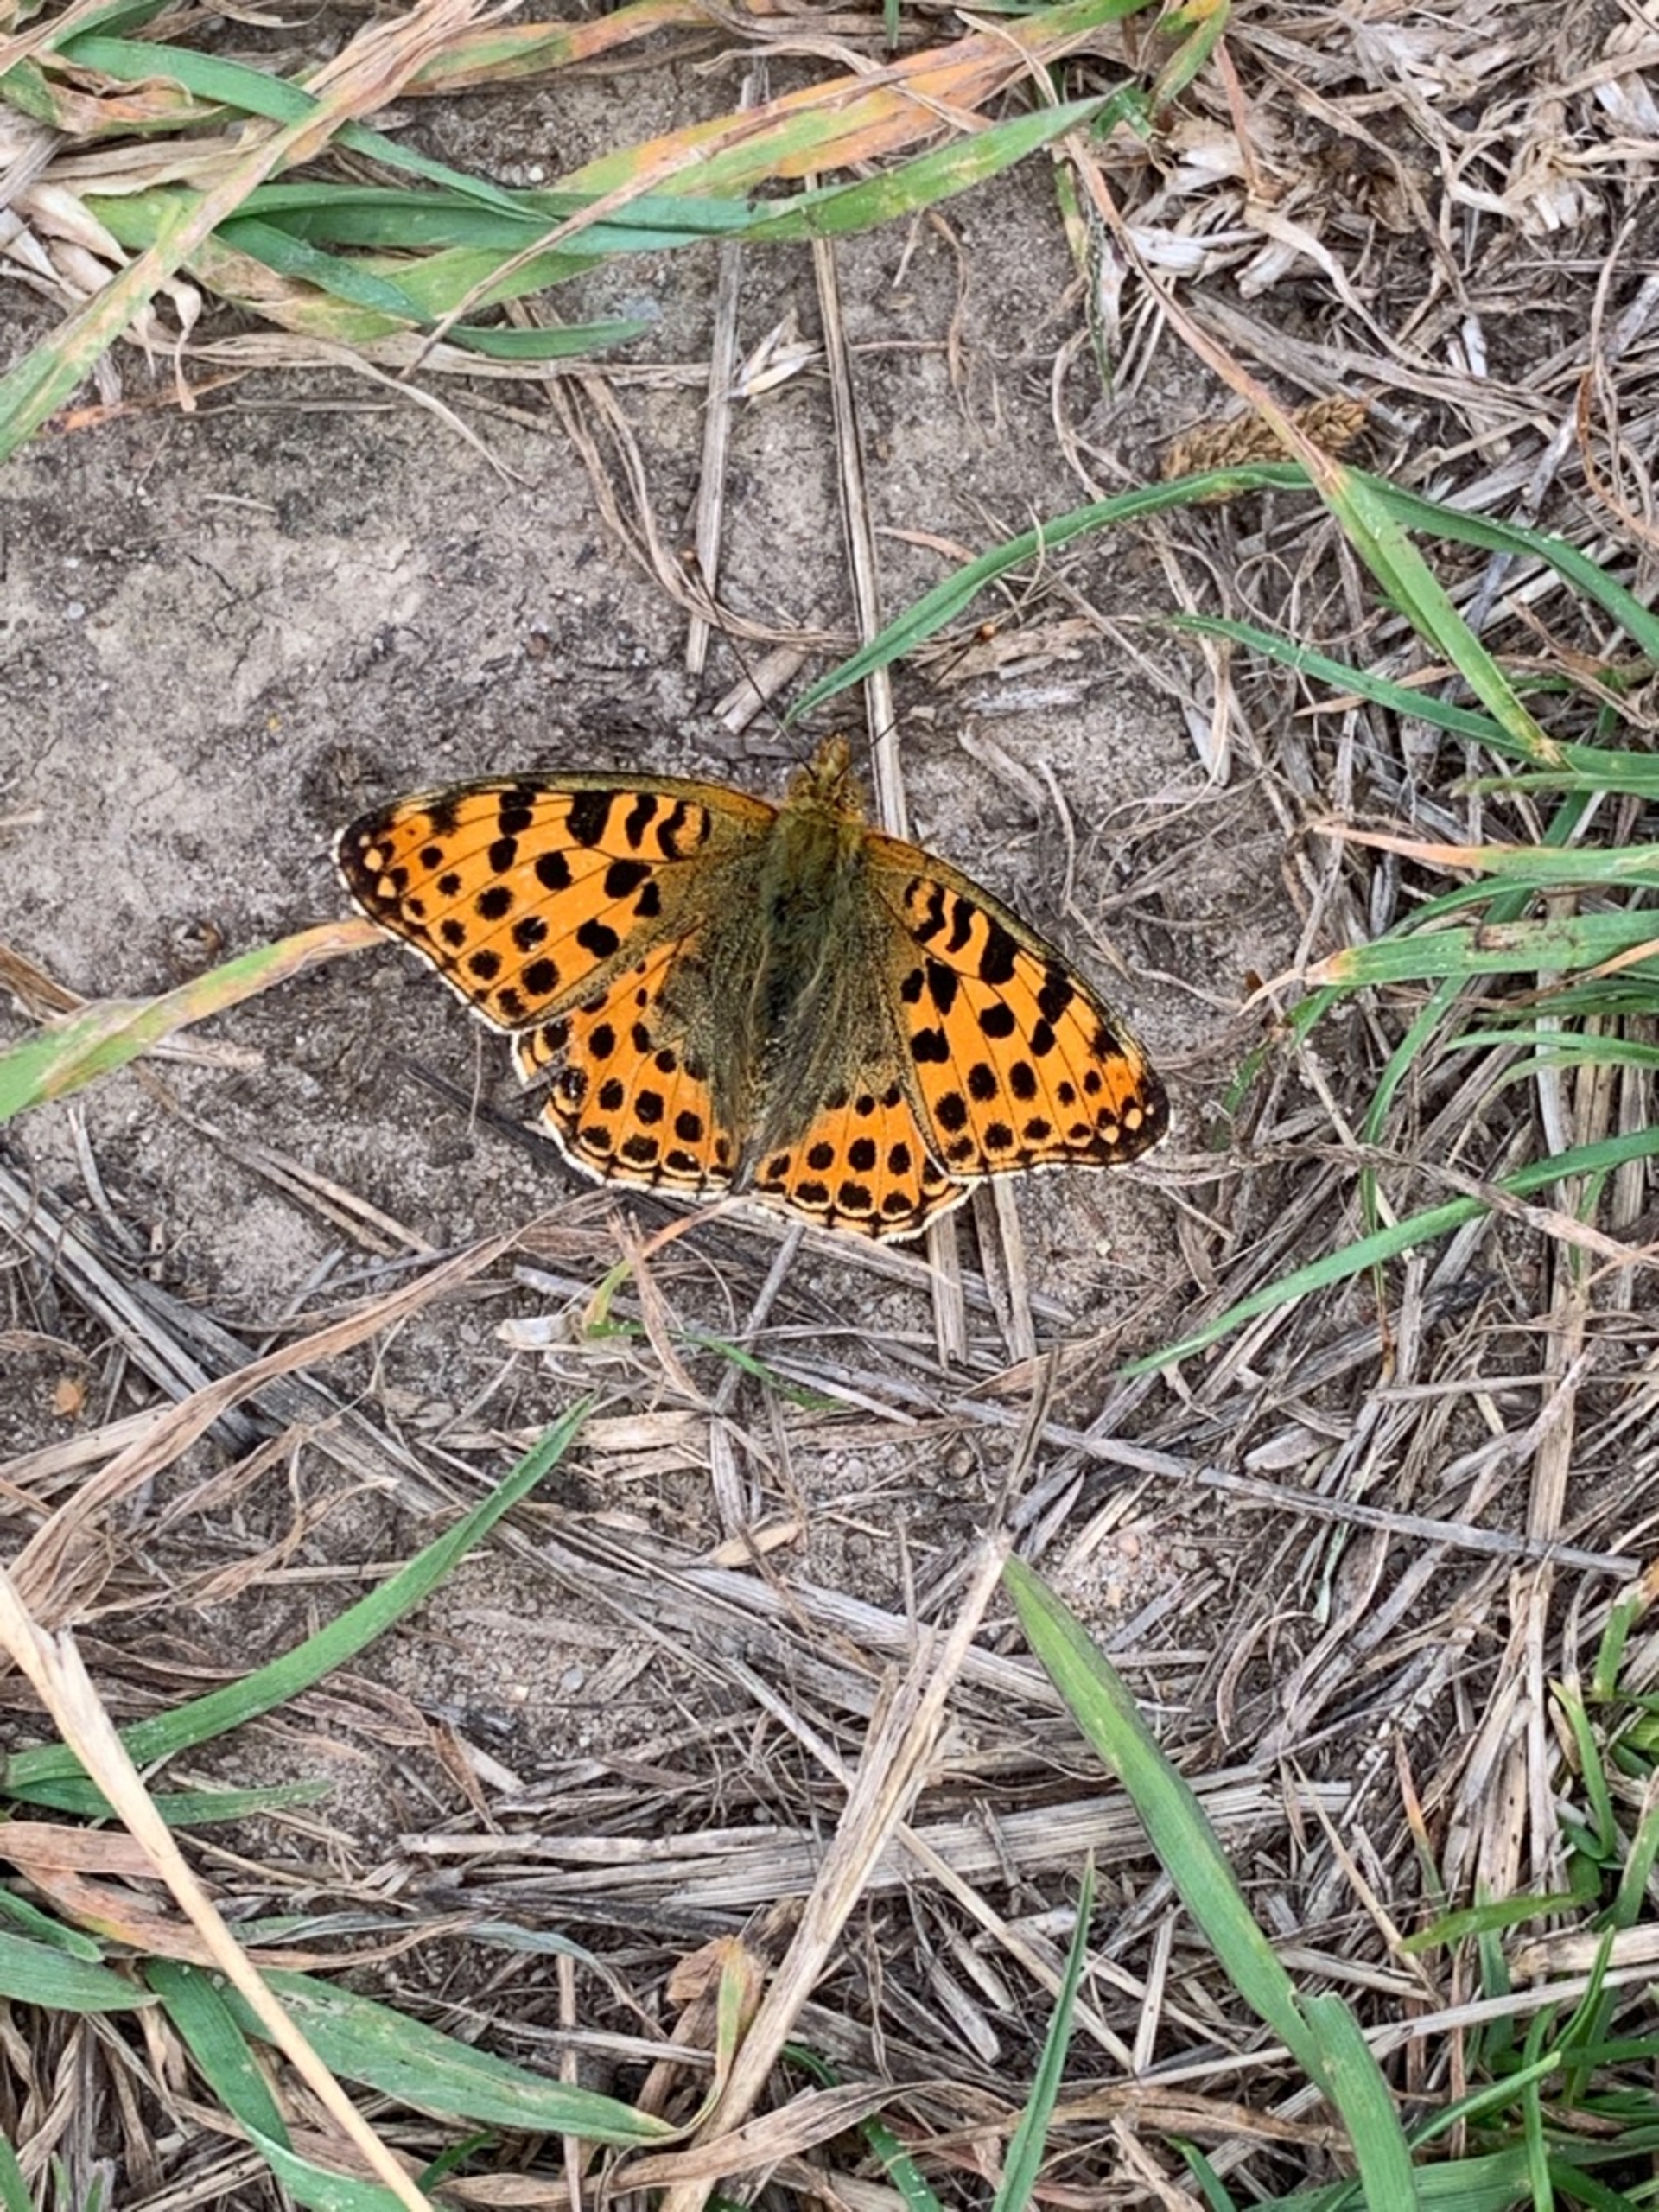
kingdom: Animalia
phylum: Arthropoda
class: Insecta
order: Lepidoptera
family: Nymphalidae
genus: Issoria
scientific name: Issoria lathonia
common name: Storplettet perlemorsommerfugl
